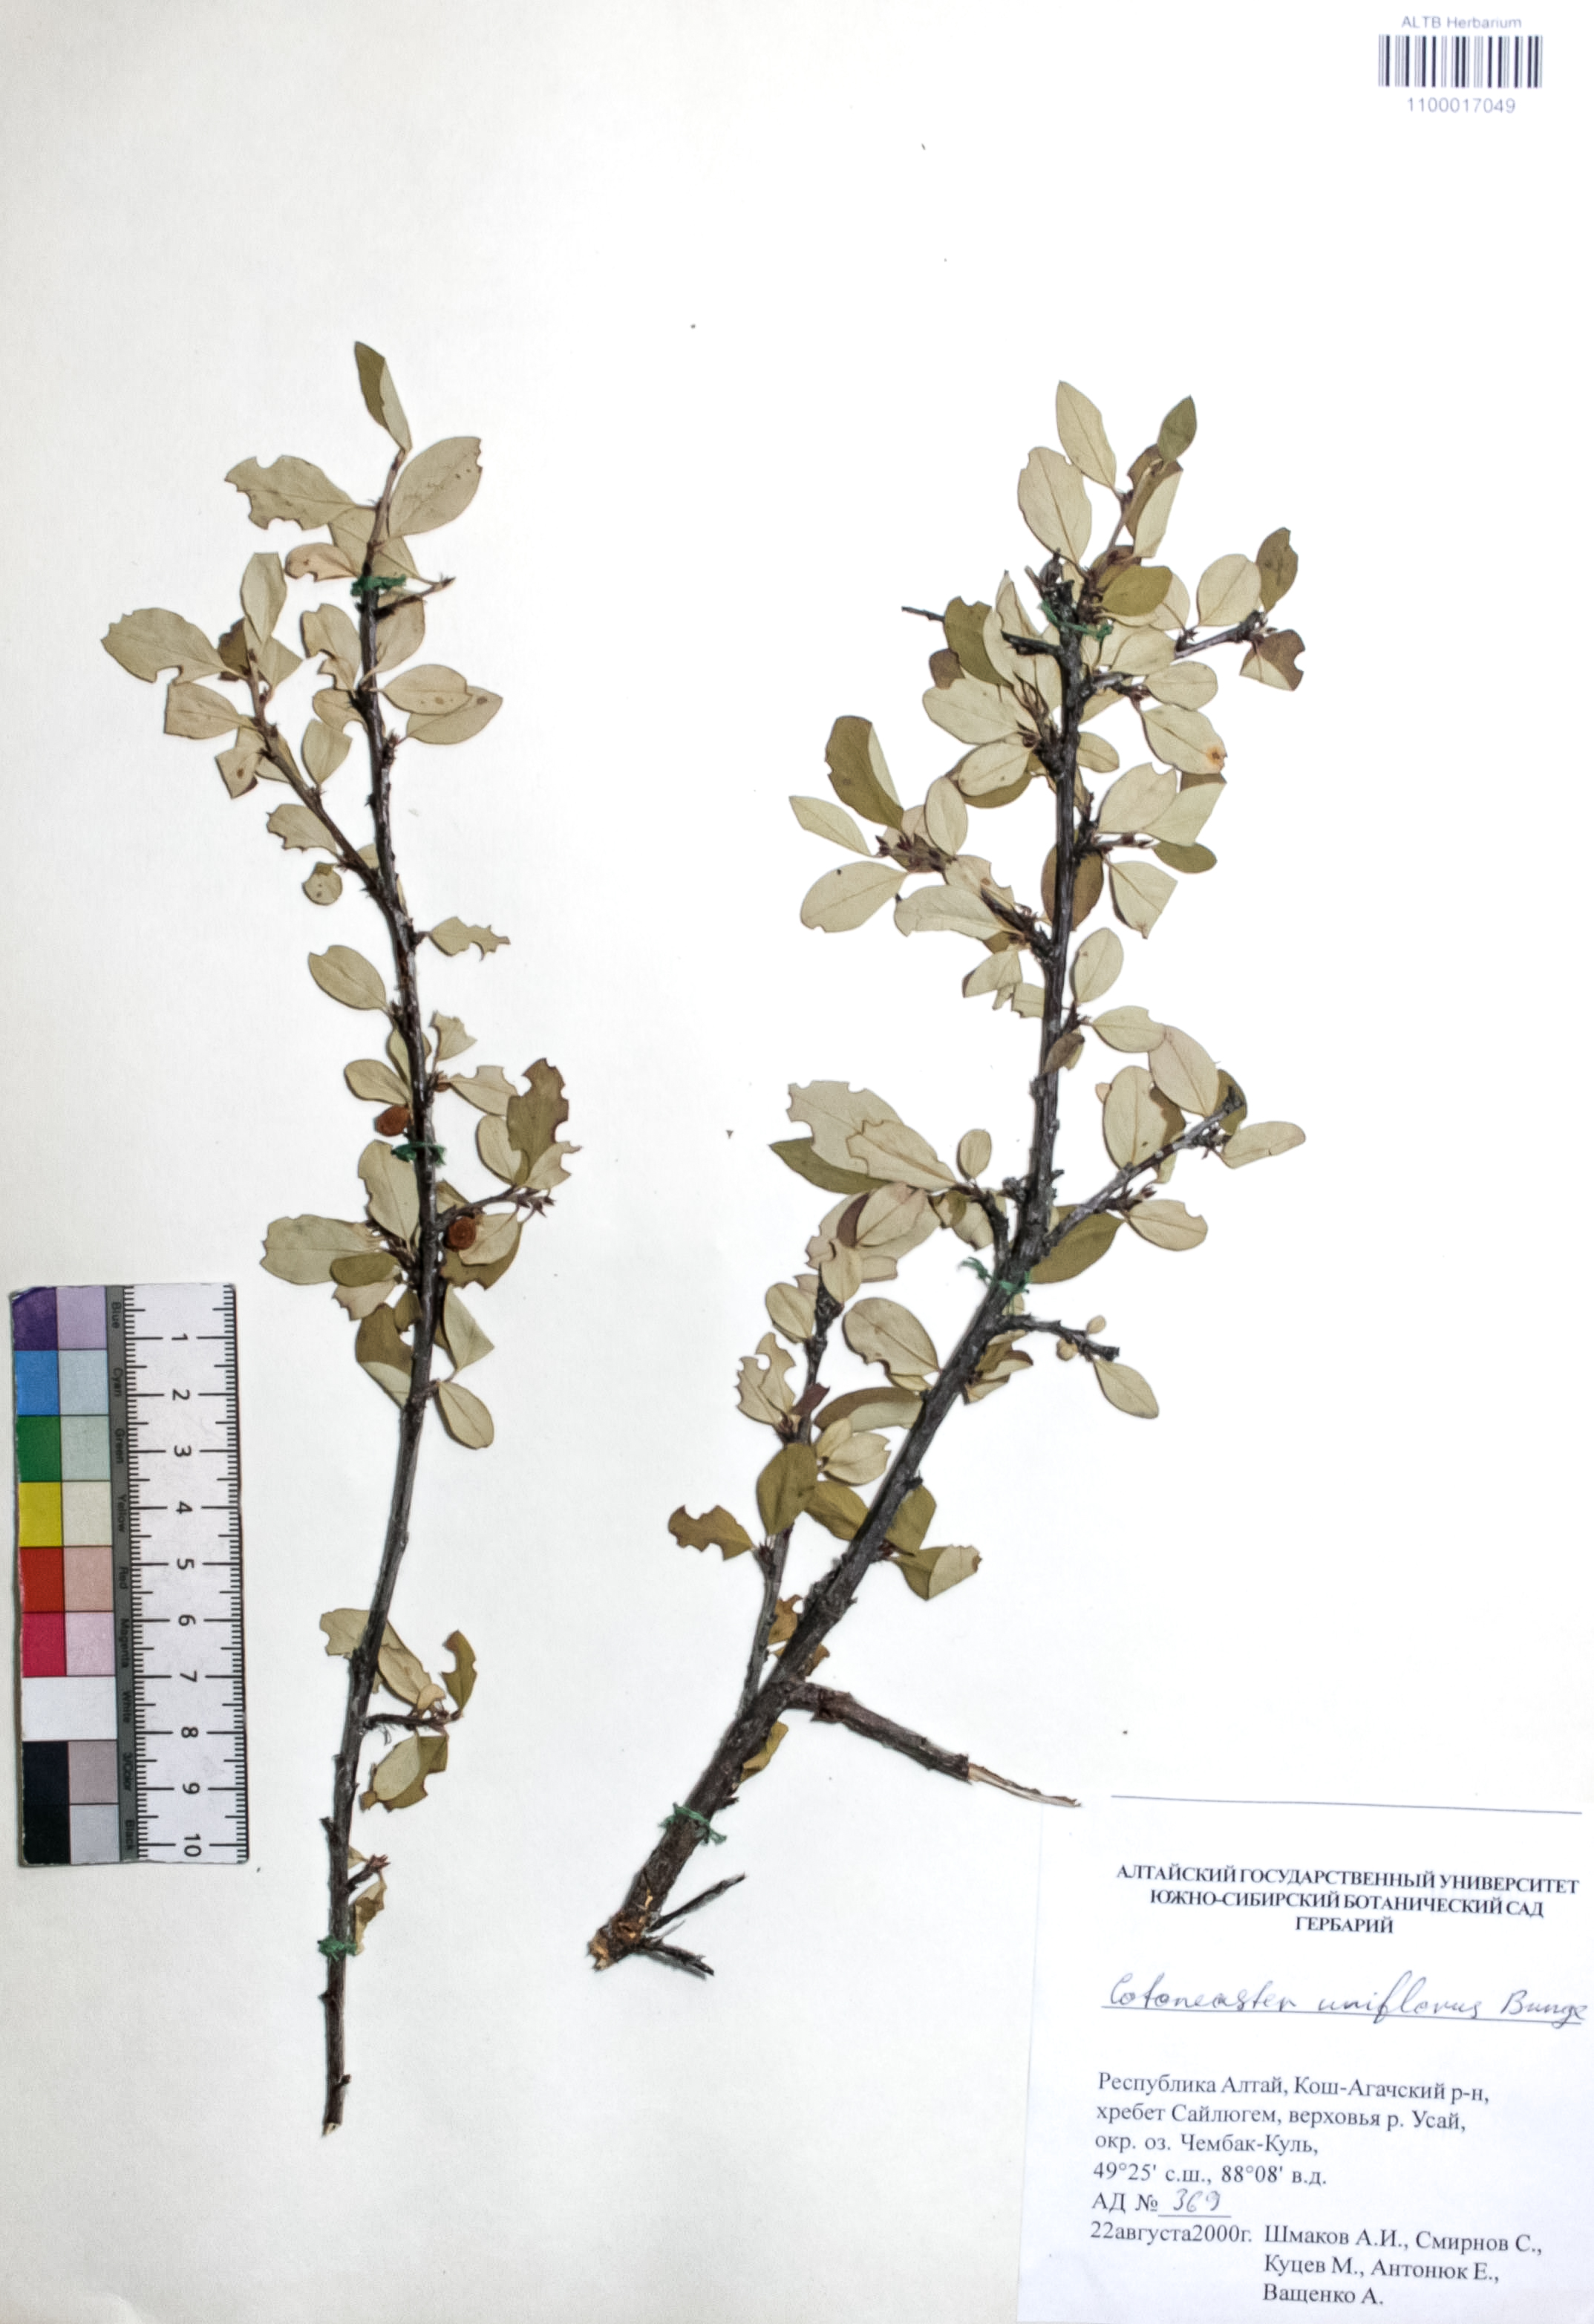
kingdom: Plantae
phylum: Tracheophyta
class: Magnoliopsida
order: Rosales
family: Rosaceae
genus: Cotoneaster
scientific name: Cotoneaster uniflorus
